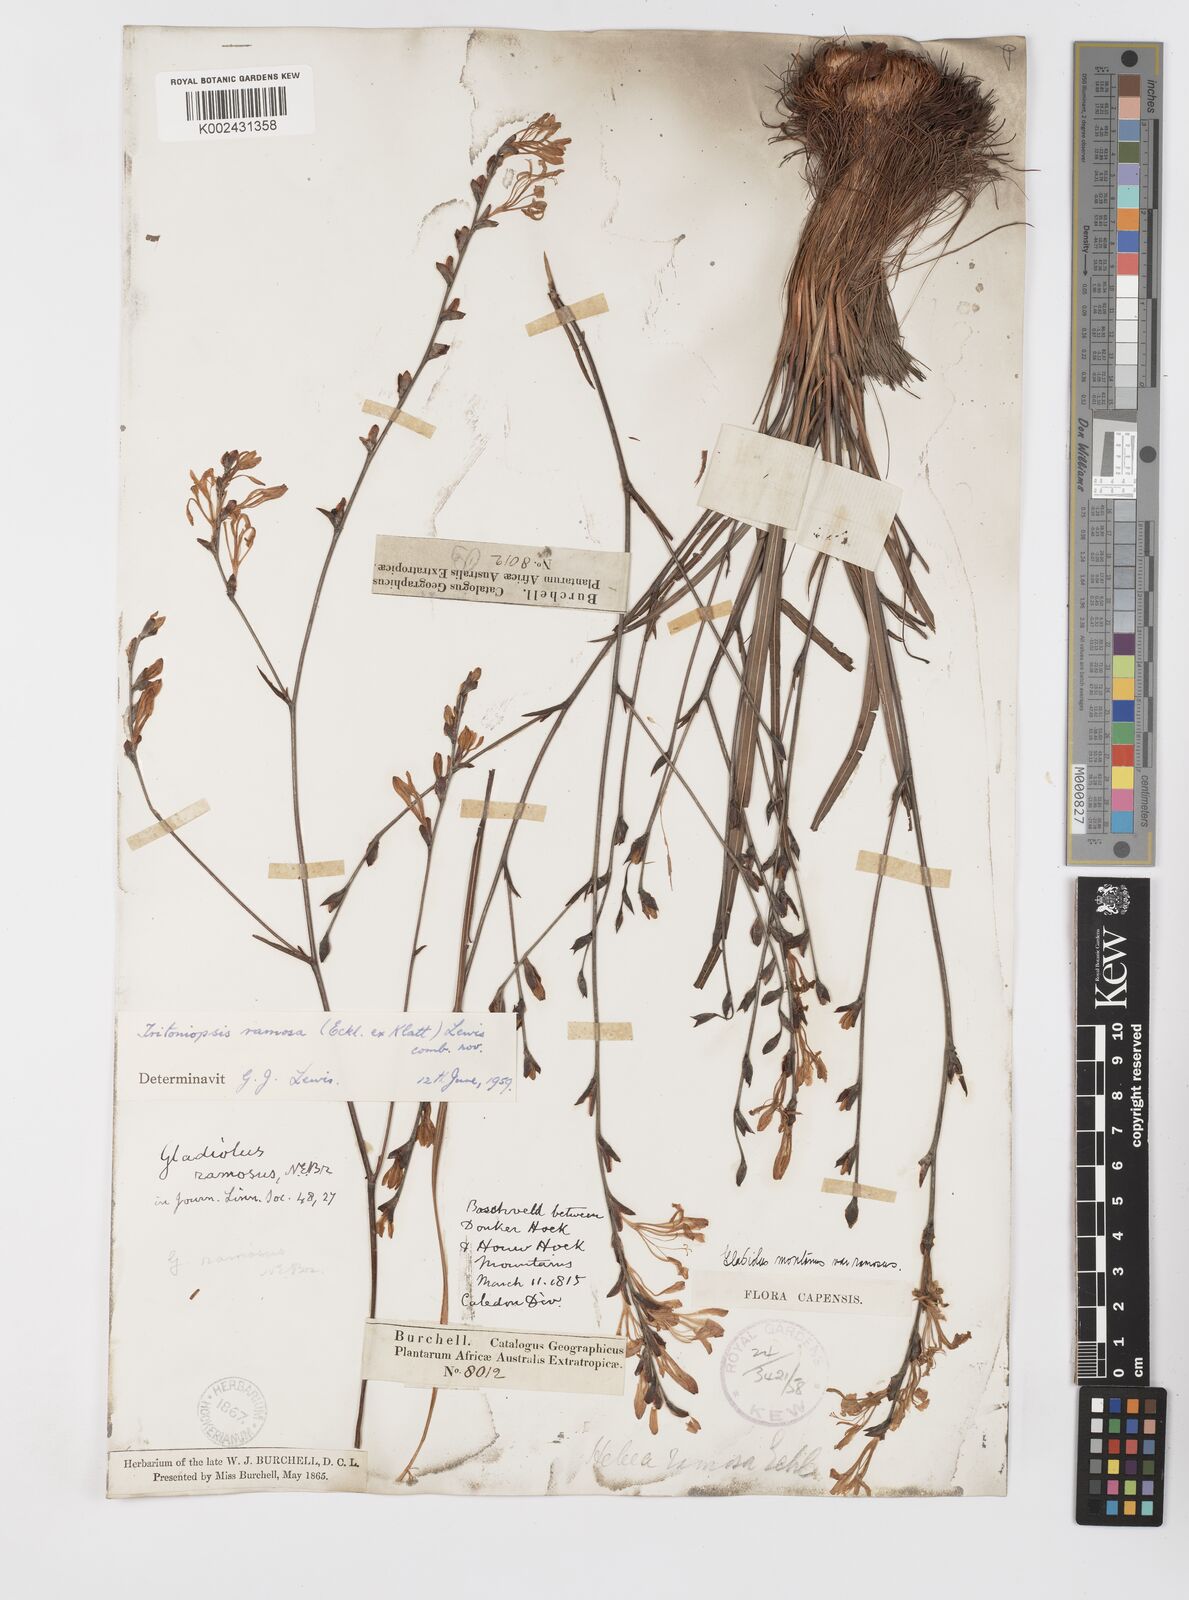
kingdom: Plantae
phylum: Tracheophyta
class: Liliopsida
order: Asparagales
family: Iridaceae
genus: Tritoniopsis
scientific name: Tritoniopsis ramosa
